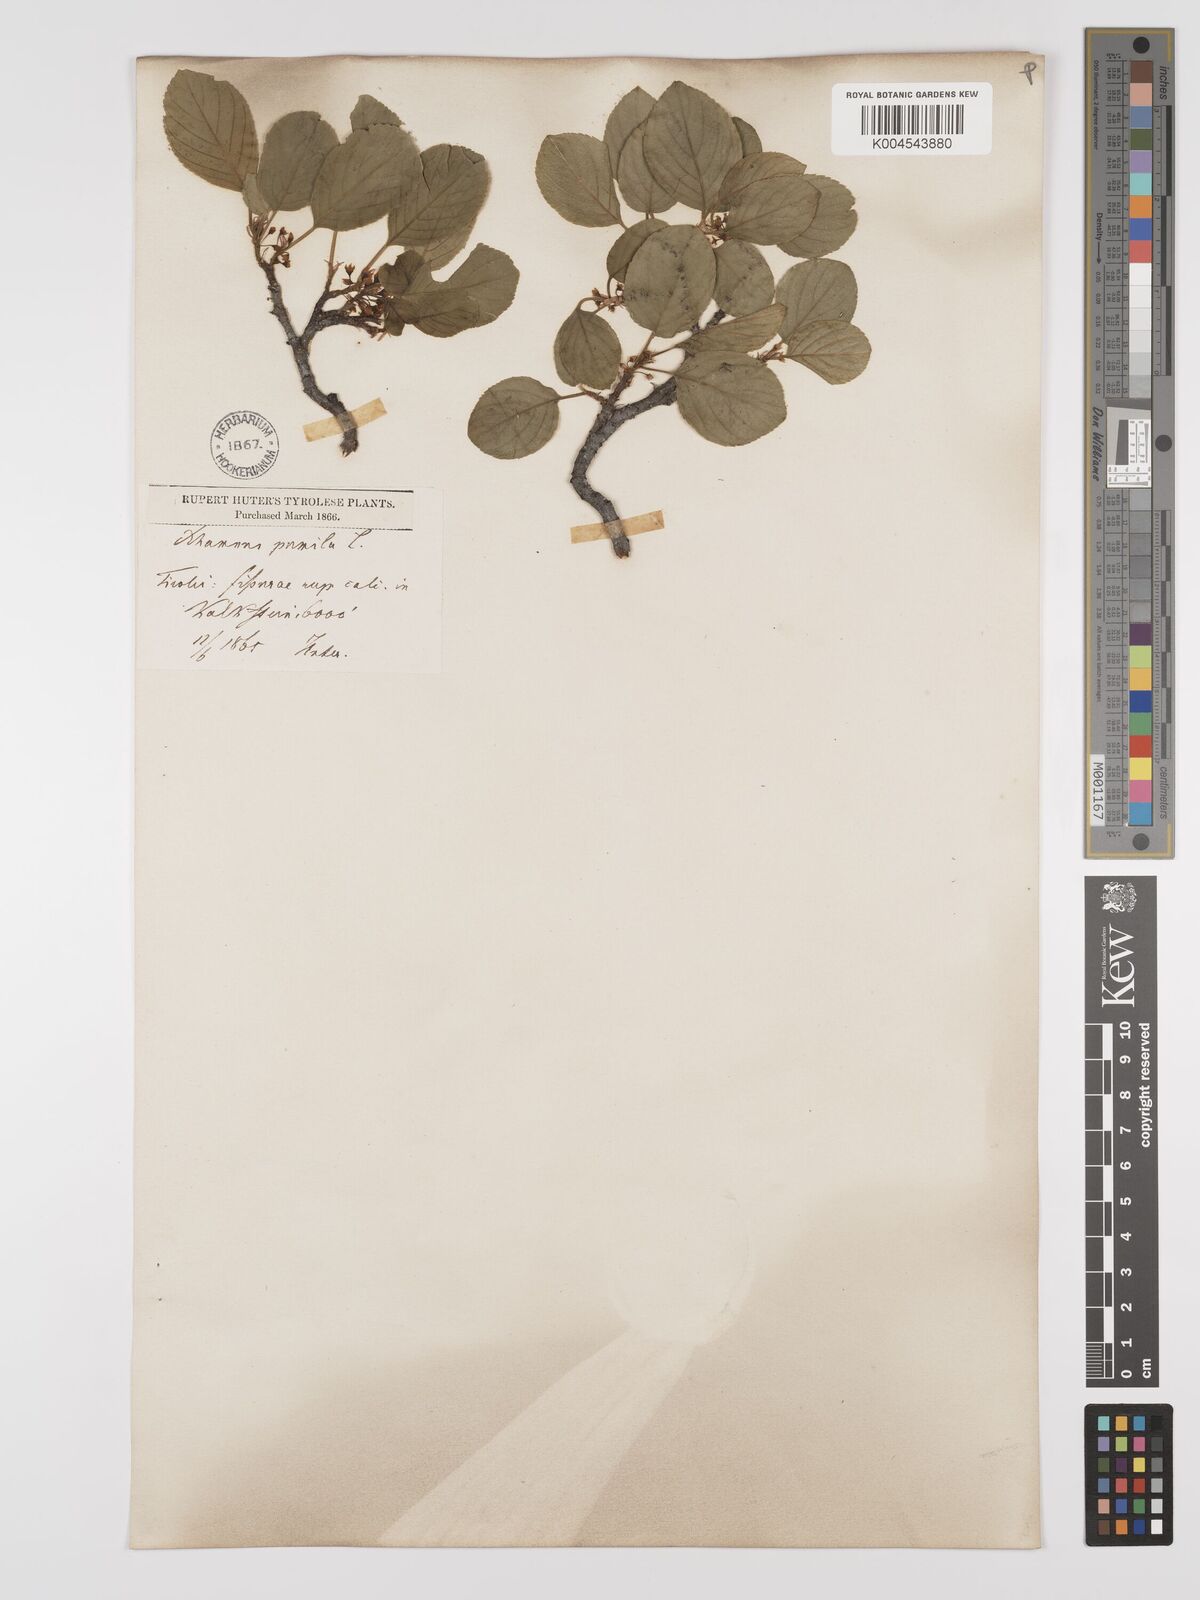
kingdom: Plantae
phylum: Tracheophyta
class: Magnoliopsida
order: Rosales
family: Rhamnaceae
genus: Rhamnus
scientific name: Rhamnus
